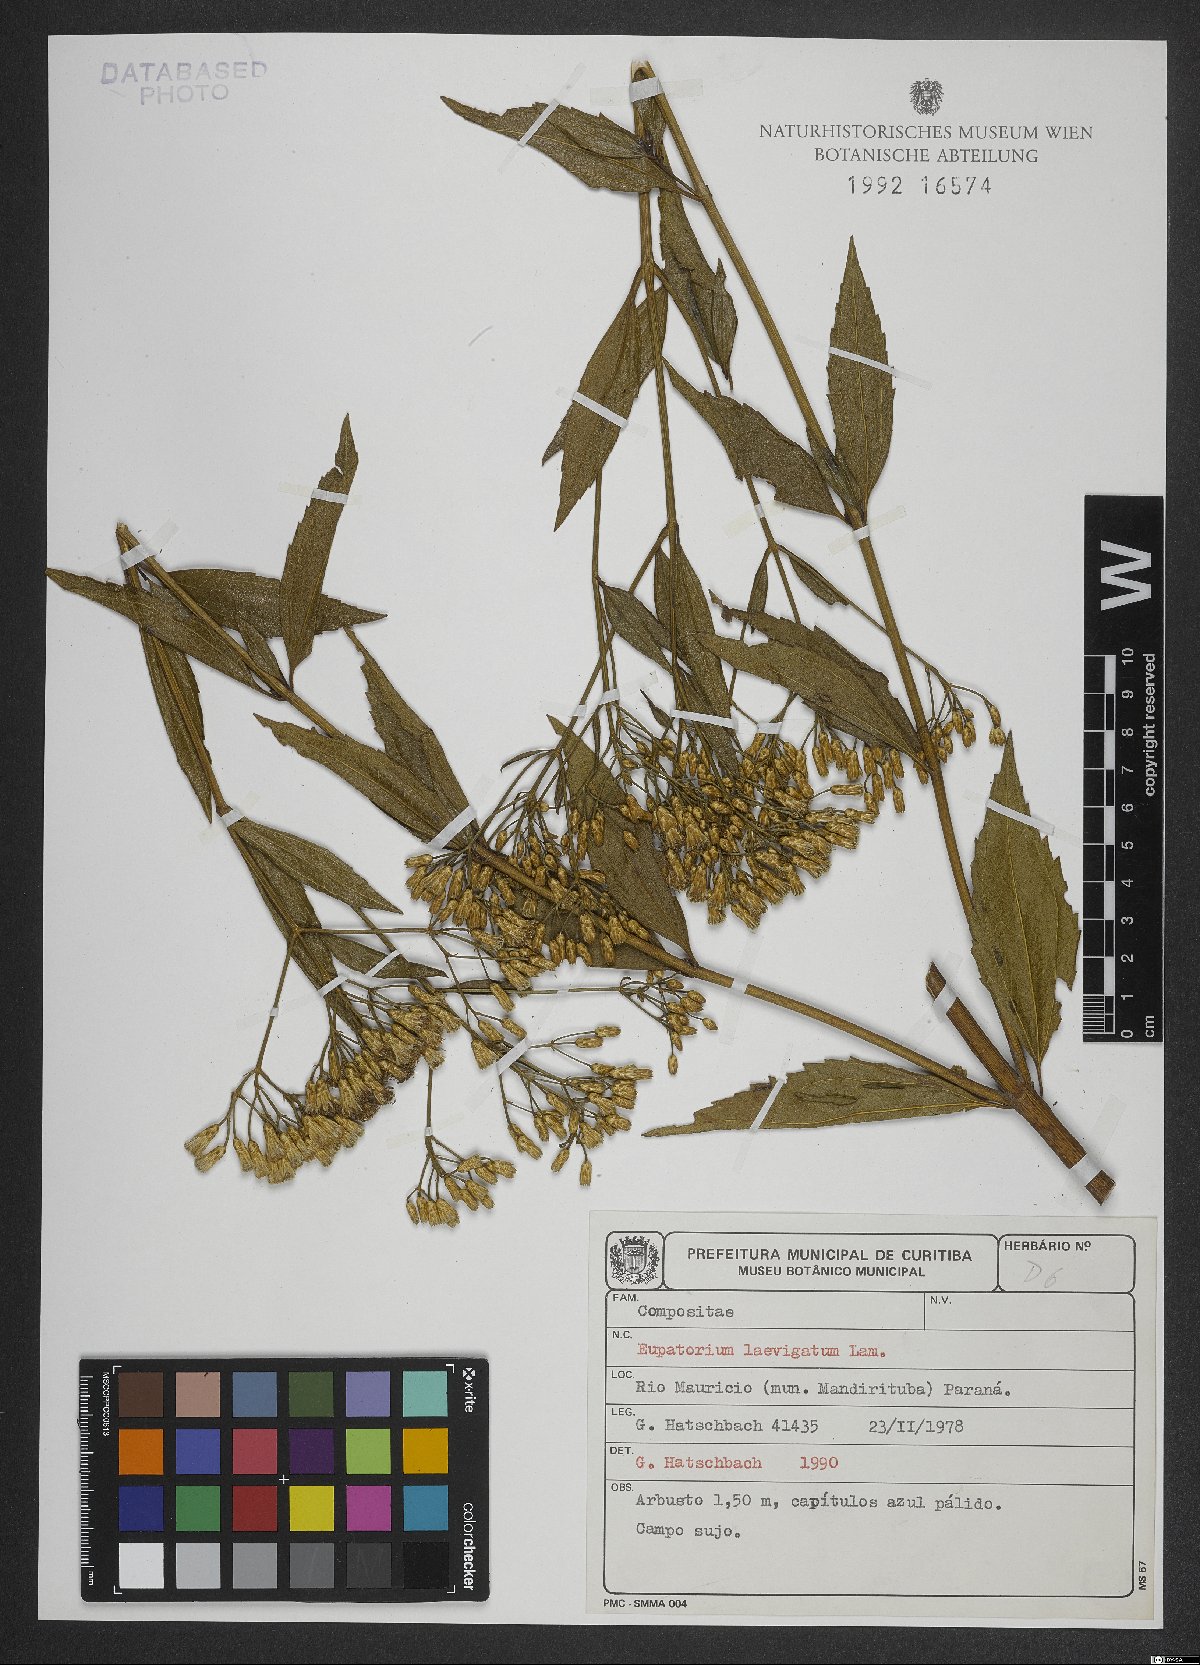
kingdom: Plantae
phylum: Tracheophyta
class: Magnoliopsida
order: Asterales
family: Asteraceae
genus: Eupatorium
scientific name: Eupatorium laevigatum
